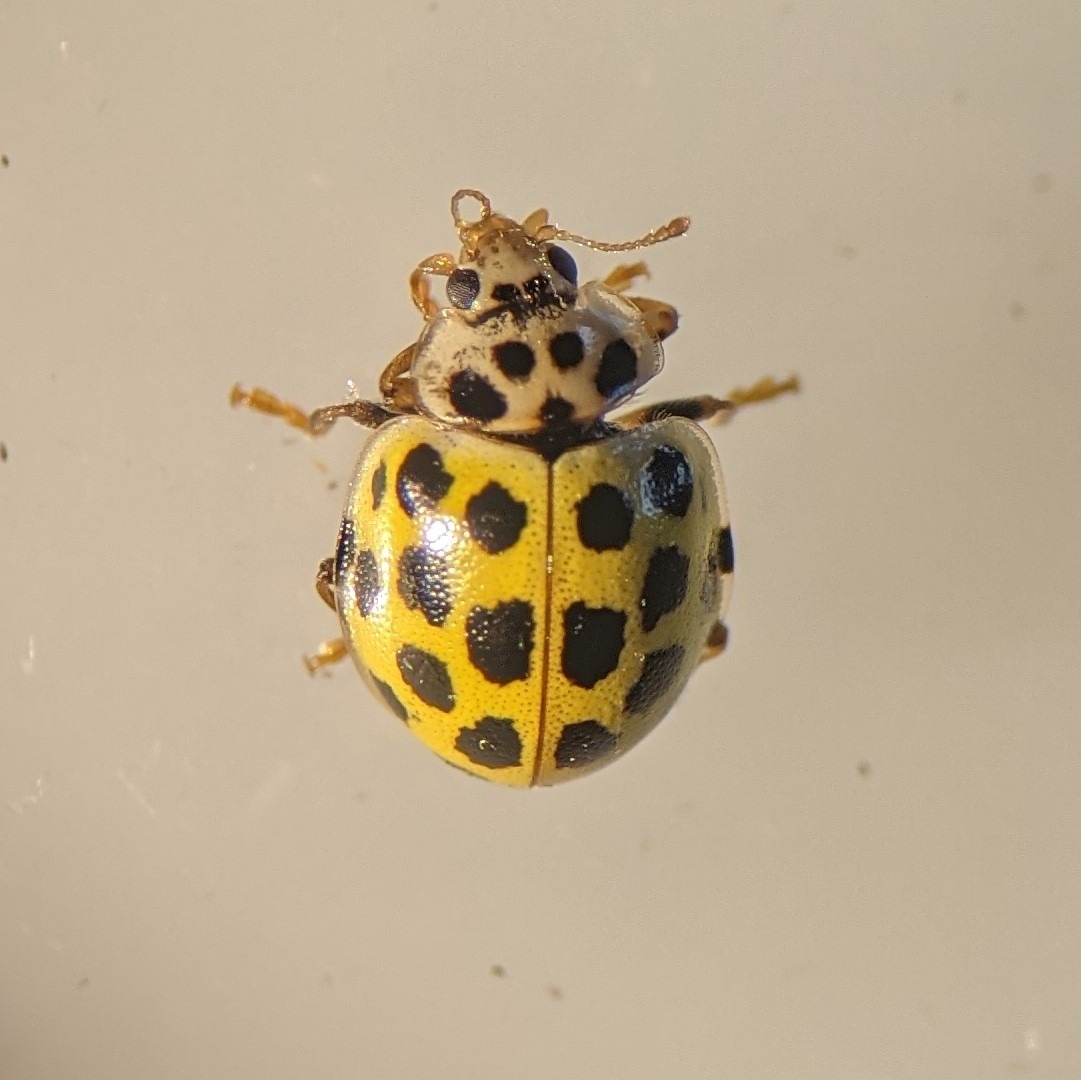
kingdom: Animalia
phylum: Arthropoda
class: Insecta
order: Coleoptera
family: Coccinellidae
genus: Psyllobora
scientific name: Psyllobora vigintiduopunctata
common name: Toogtyveplettet mariehøne
